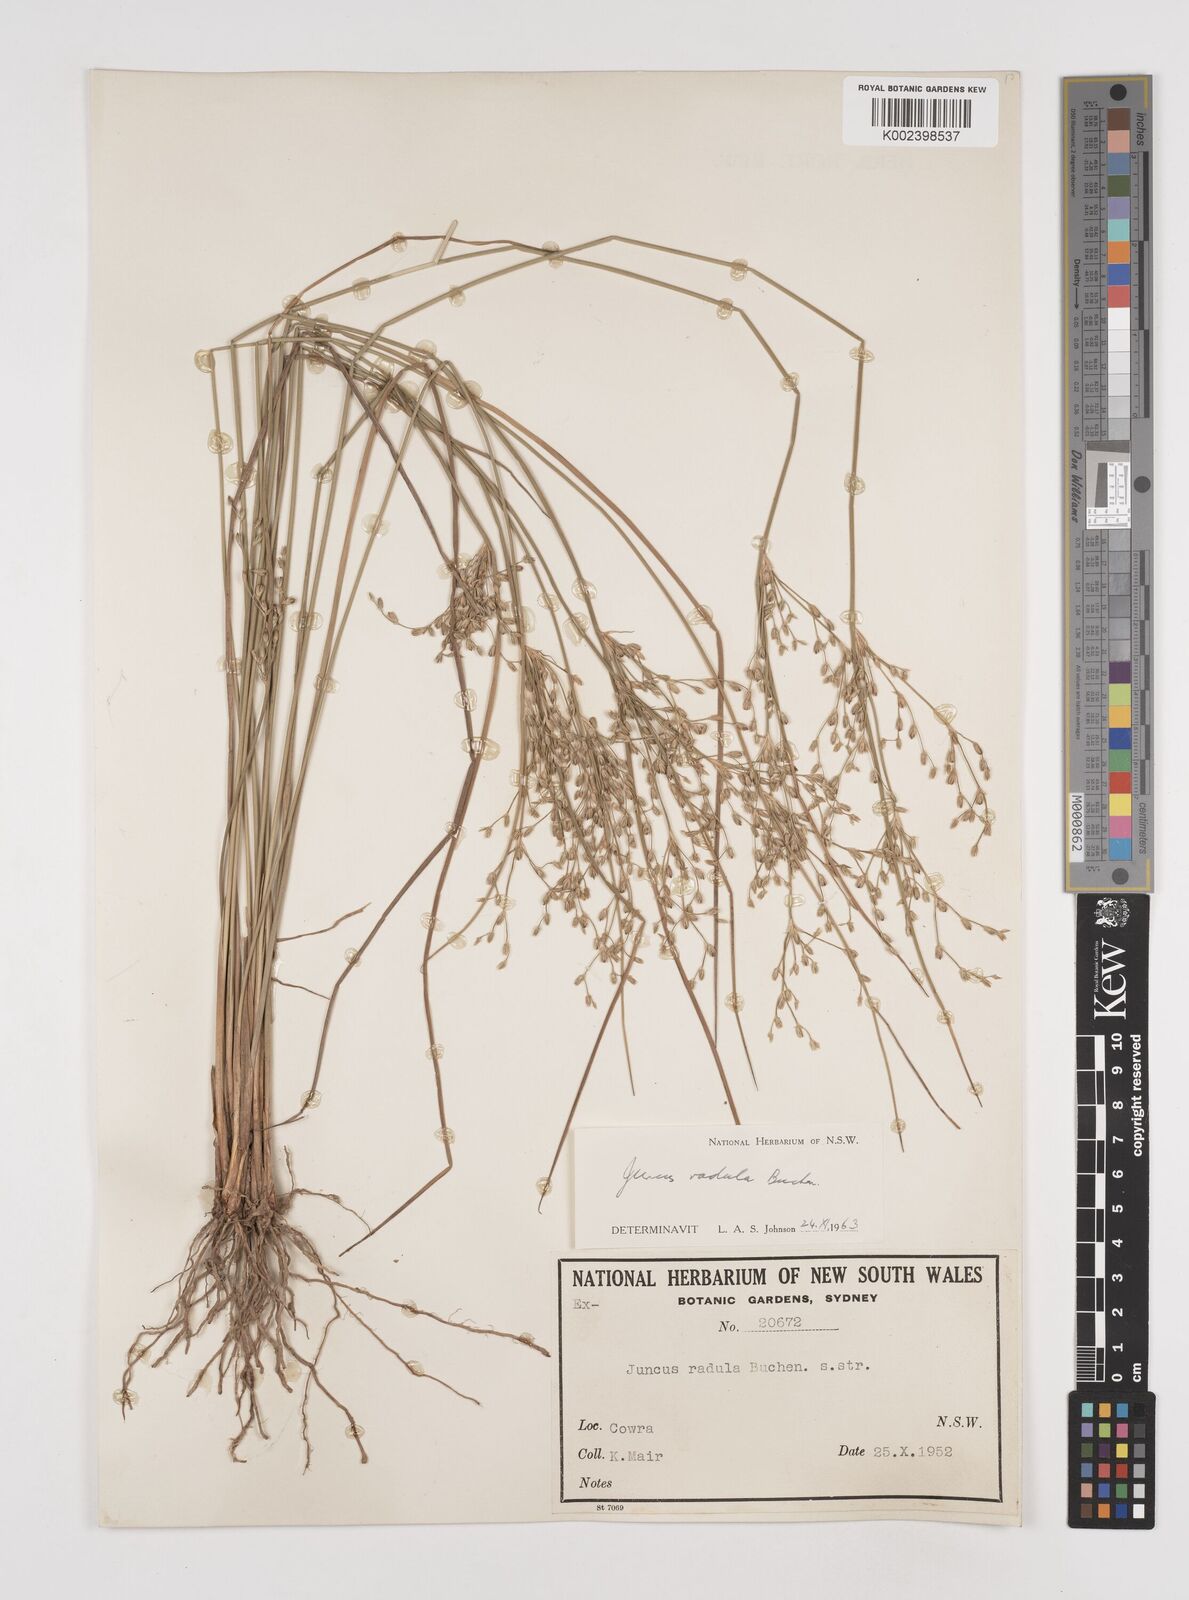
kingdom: Plantae
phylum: Tracheophyta
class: Liliopsida
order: Poales
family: Juncaceae
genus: Juncus
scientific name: Juncus radula
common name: Hoary rush
